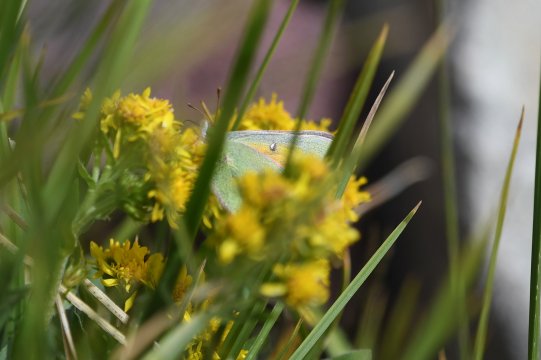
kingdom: Animalia
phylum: Arthropoda
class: Insecta
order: Lepidoptera
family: Pieridae
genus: Colias
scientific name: Colias meadii
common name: Mead's Sulphur
